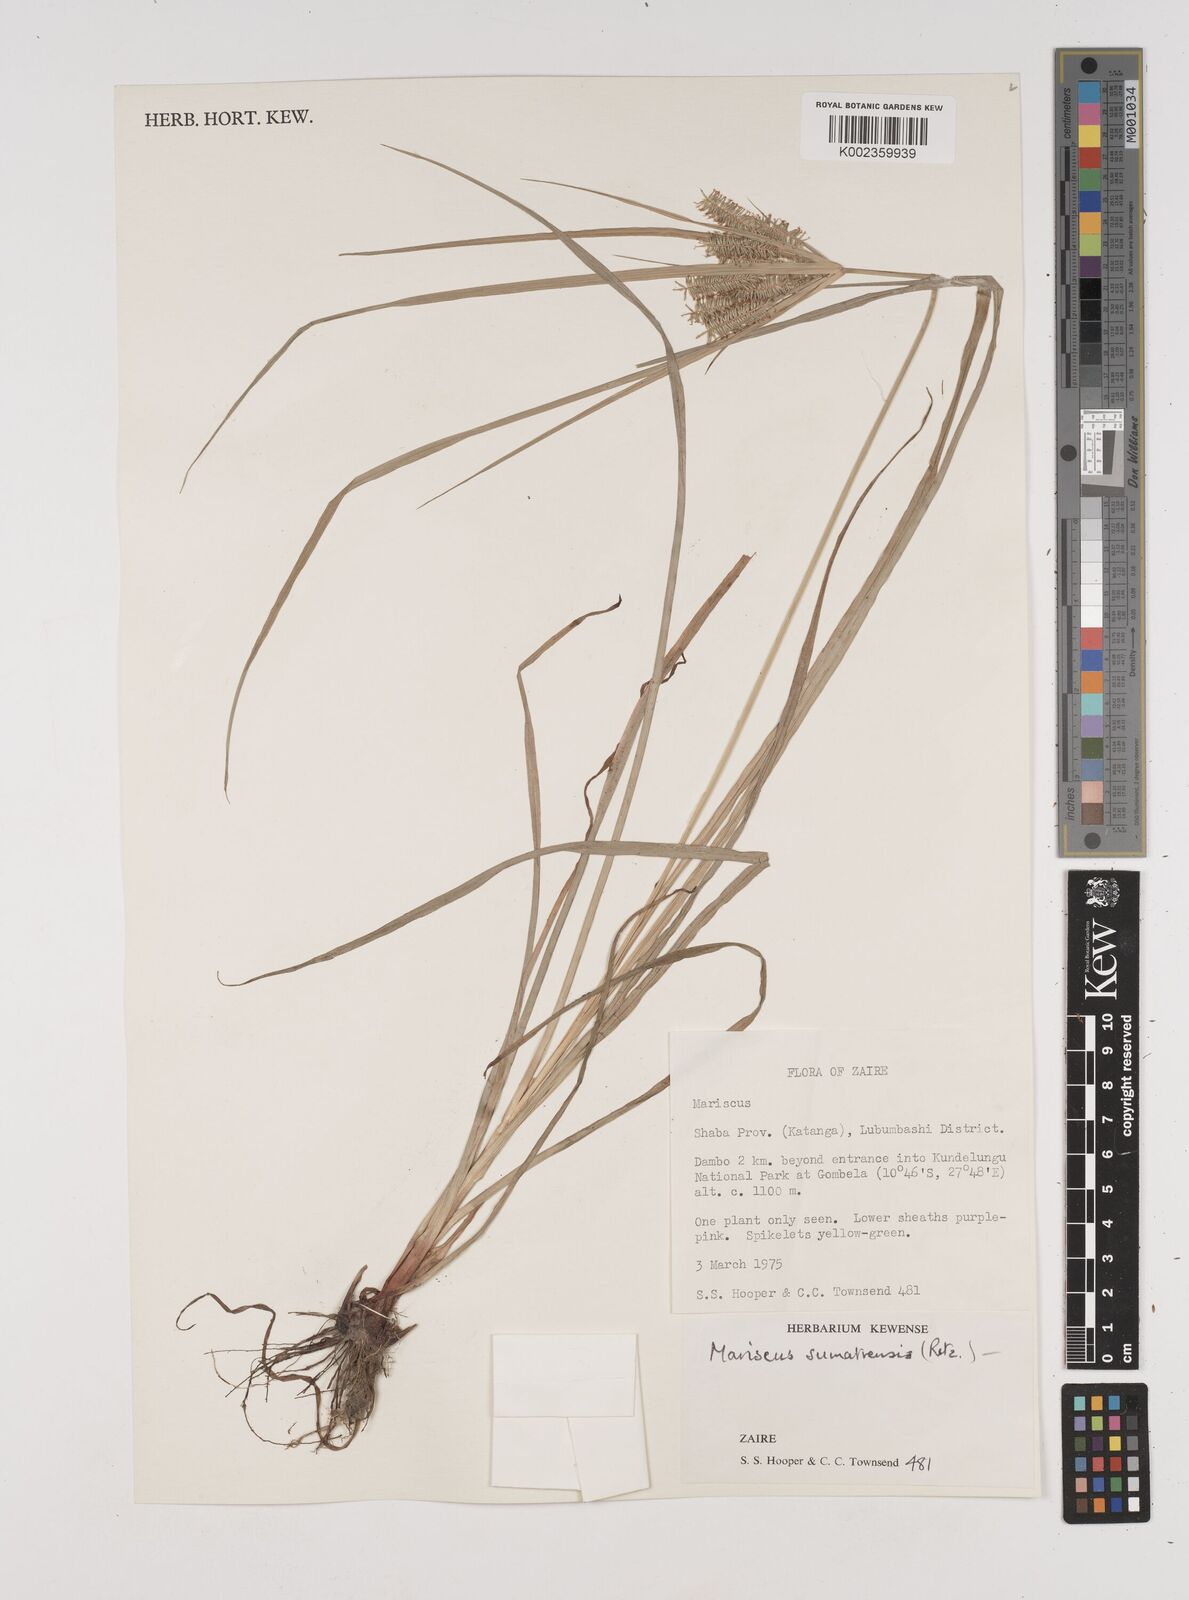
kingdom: Plantae
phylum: Tracheophyta
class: Liliopsida
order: Poales
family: Cyperaceae
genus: Cyperus
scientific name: Cyperus cyperoides
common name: Pacific island flat sedge
